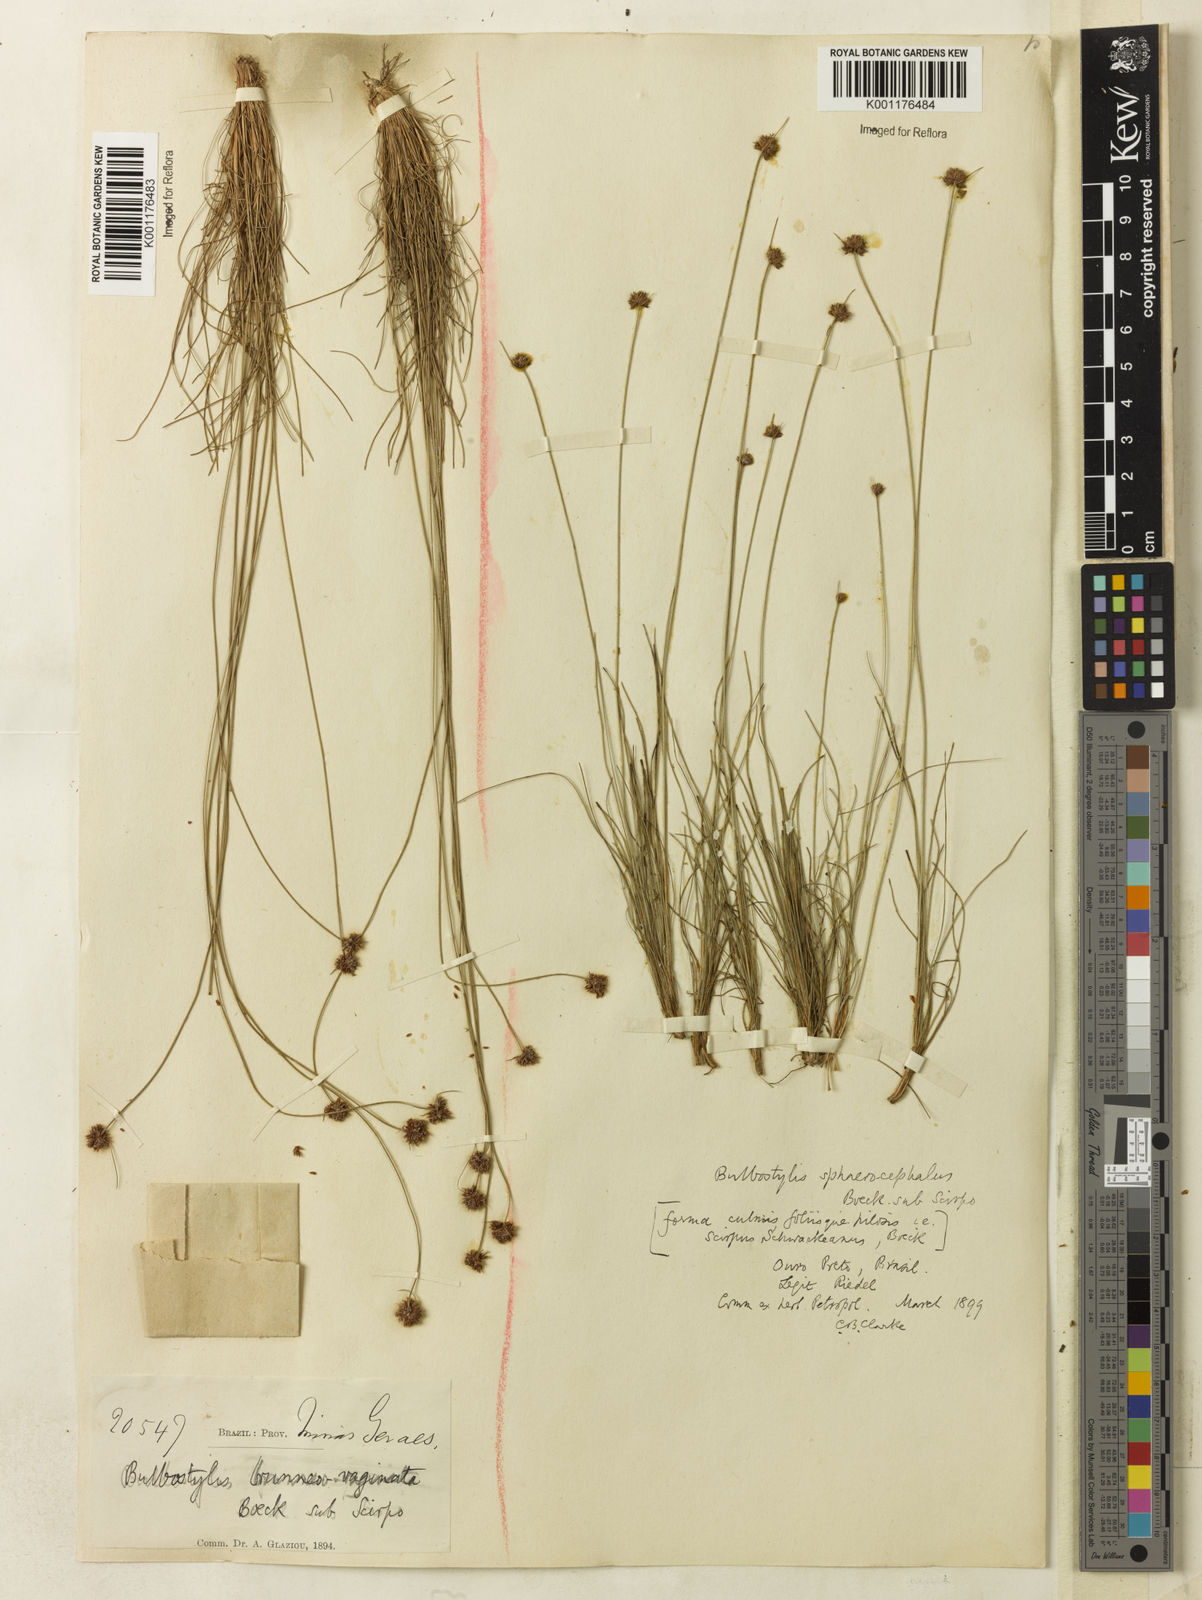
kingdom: Plantae
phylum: Tracheophyta
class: Liliopsida
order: Poales
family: Cyperaceae
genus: Bulbostylis
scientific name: Bulbostylis
